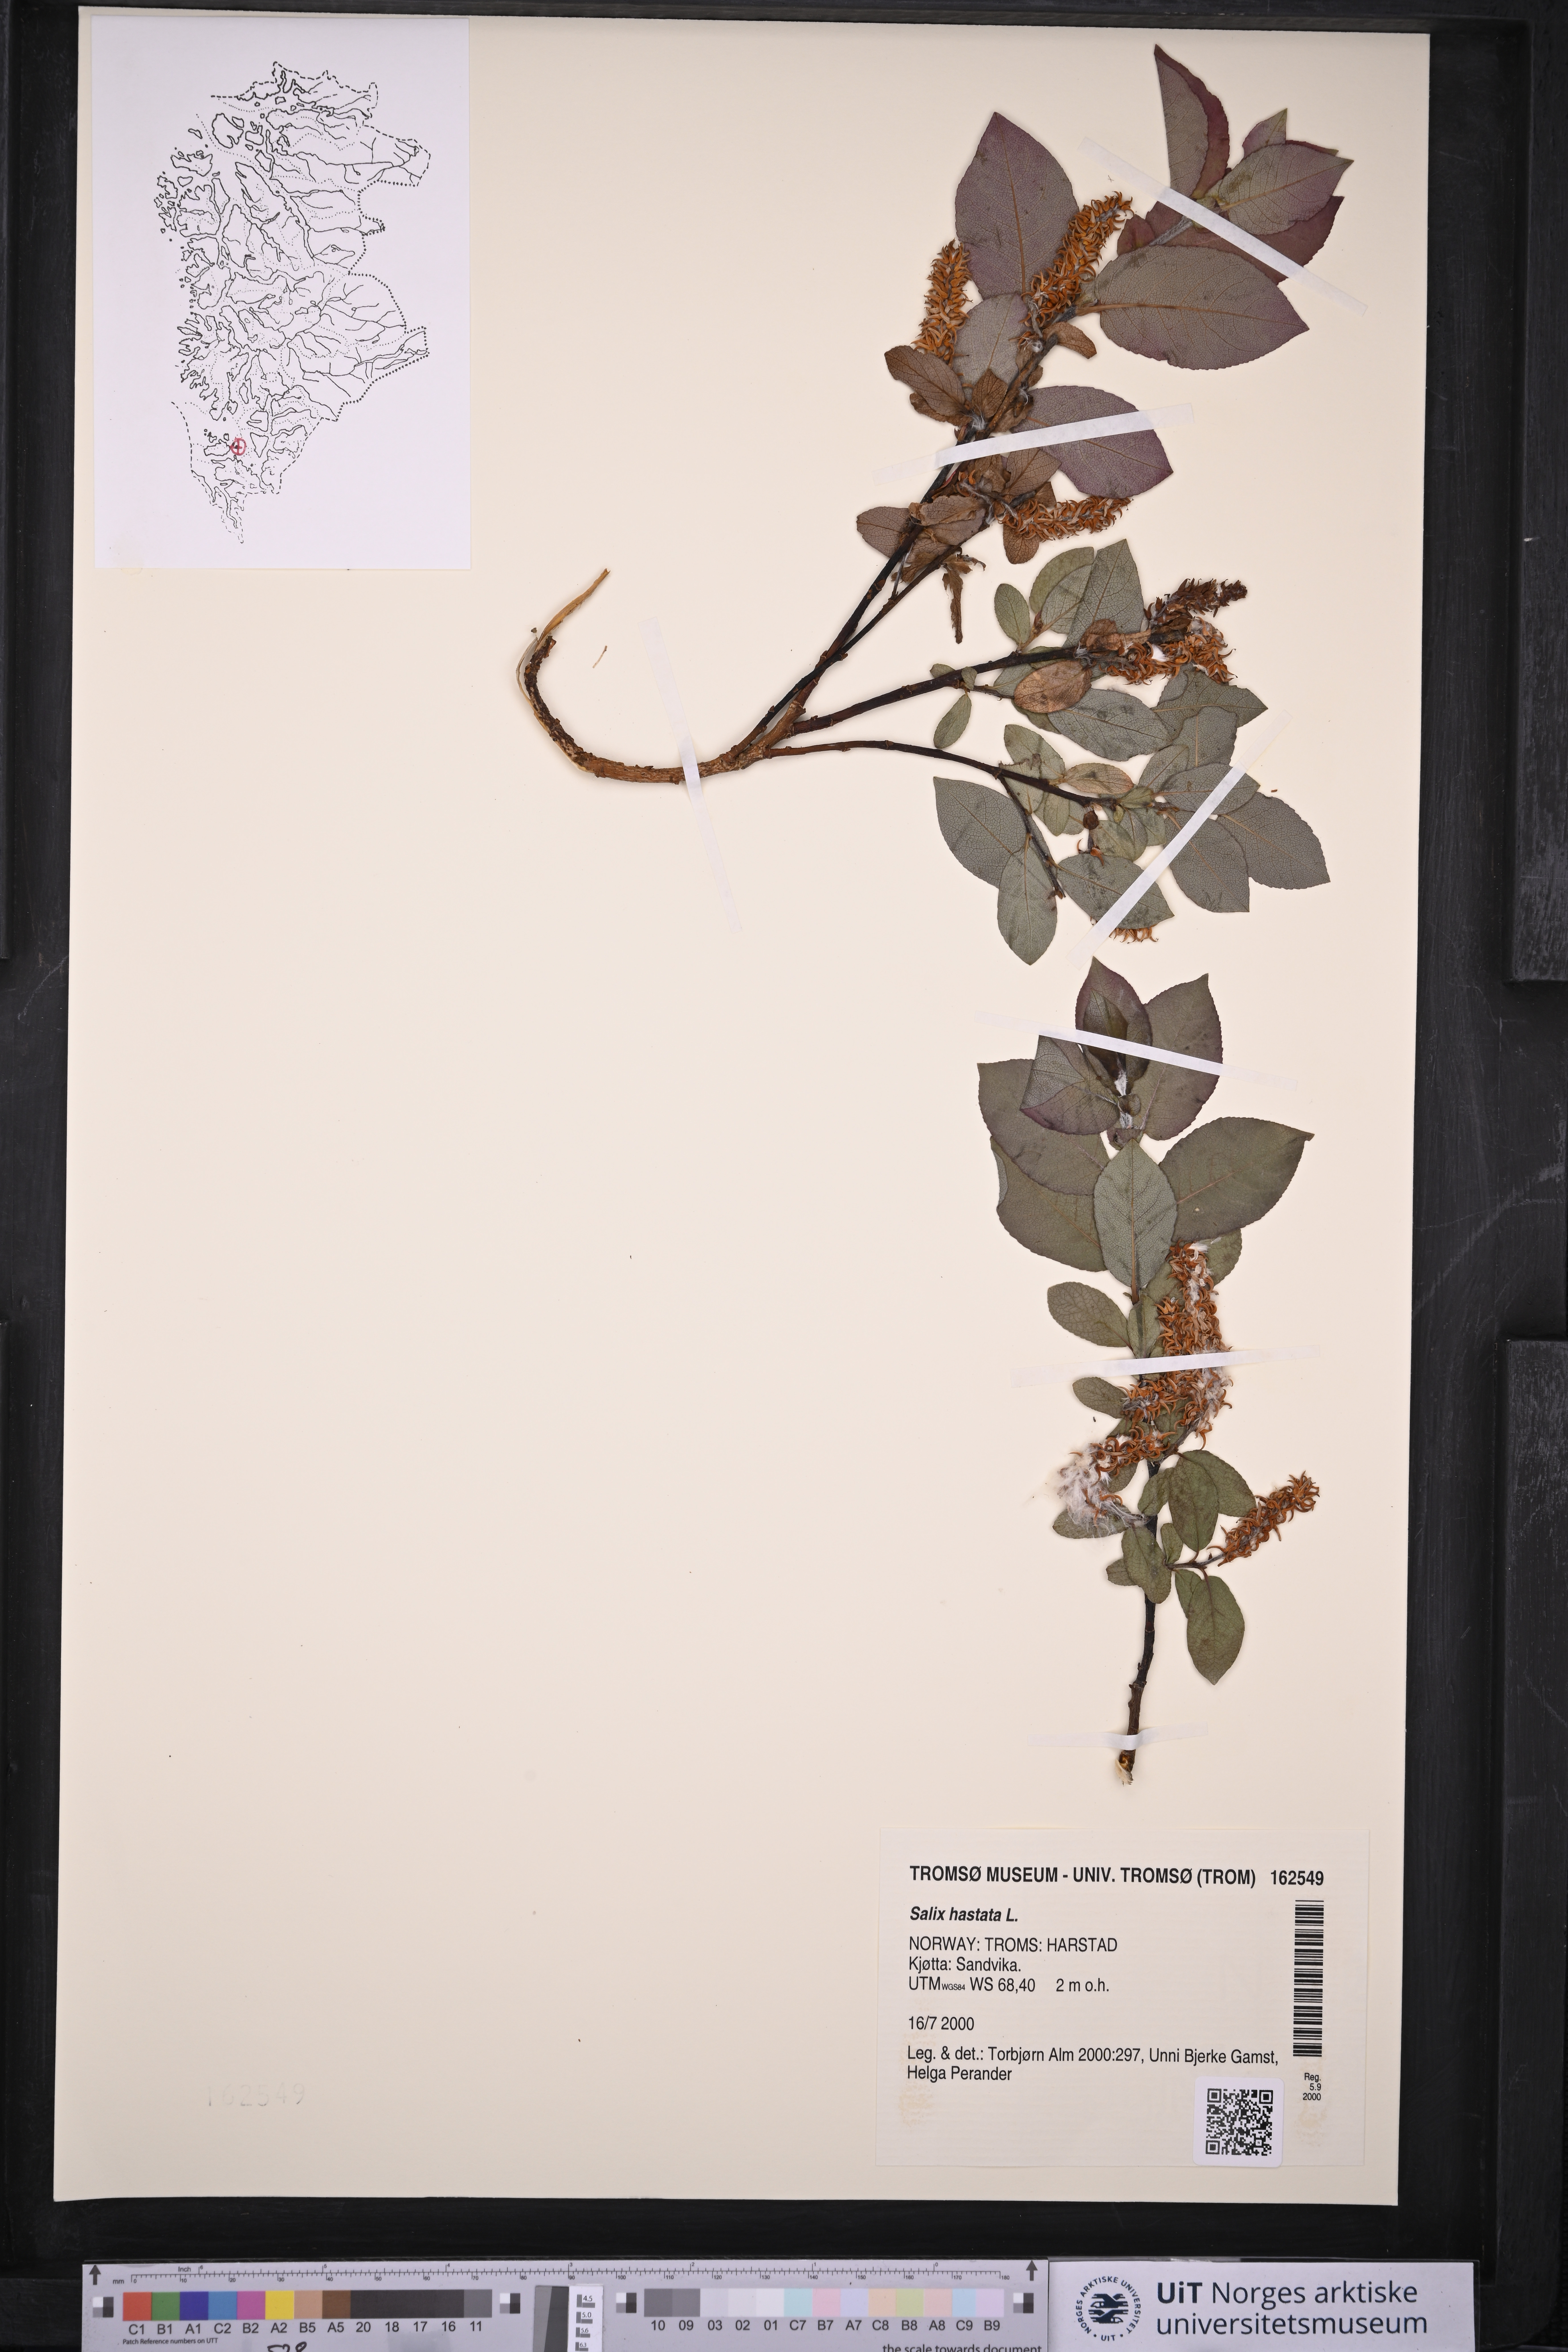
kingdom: Plantae
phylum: Tracheophyta
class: Magnoliopsida
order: Malpighiales
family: Salicaceae
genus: Salix
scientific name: Salix hastata
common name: Halberd willow
